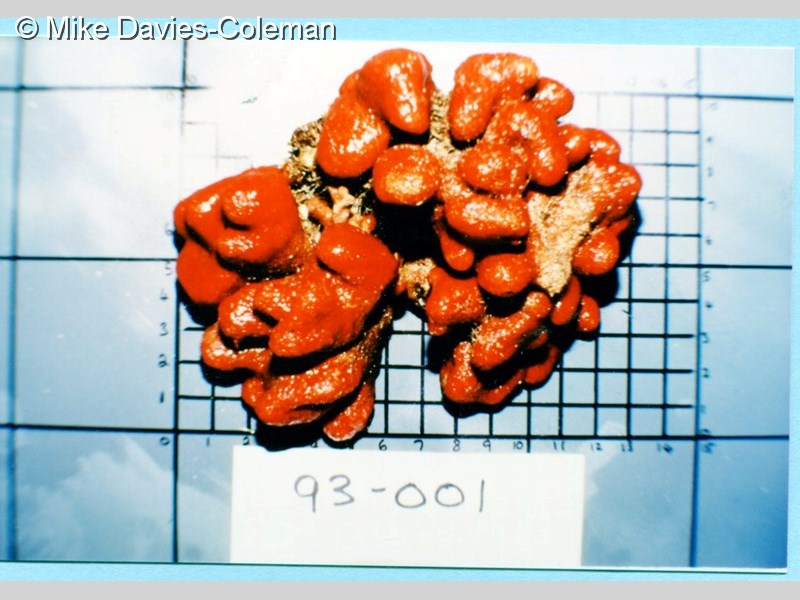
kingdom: Animalia
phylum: Chordata
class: Ascidiacea
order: Aplousobranchia
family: Pseudodistomidae
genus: Pseudodistoma
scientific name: Pseudodistoma
